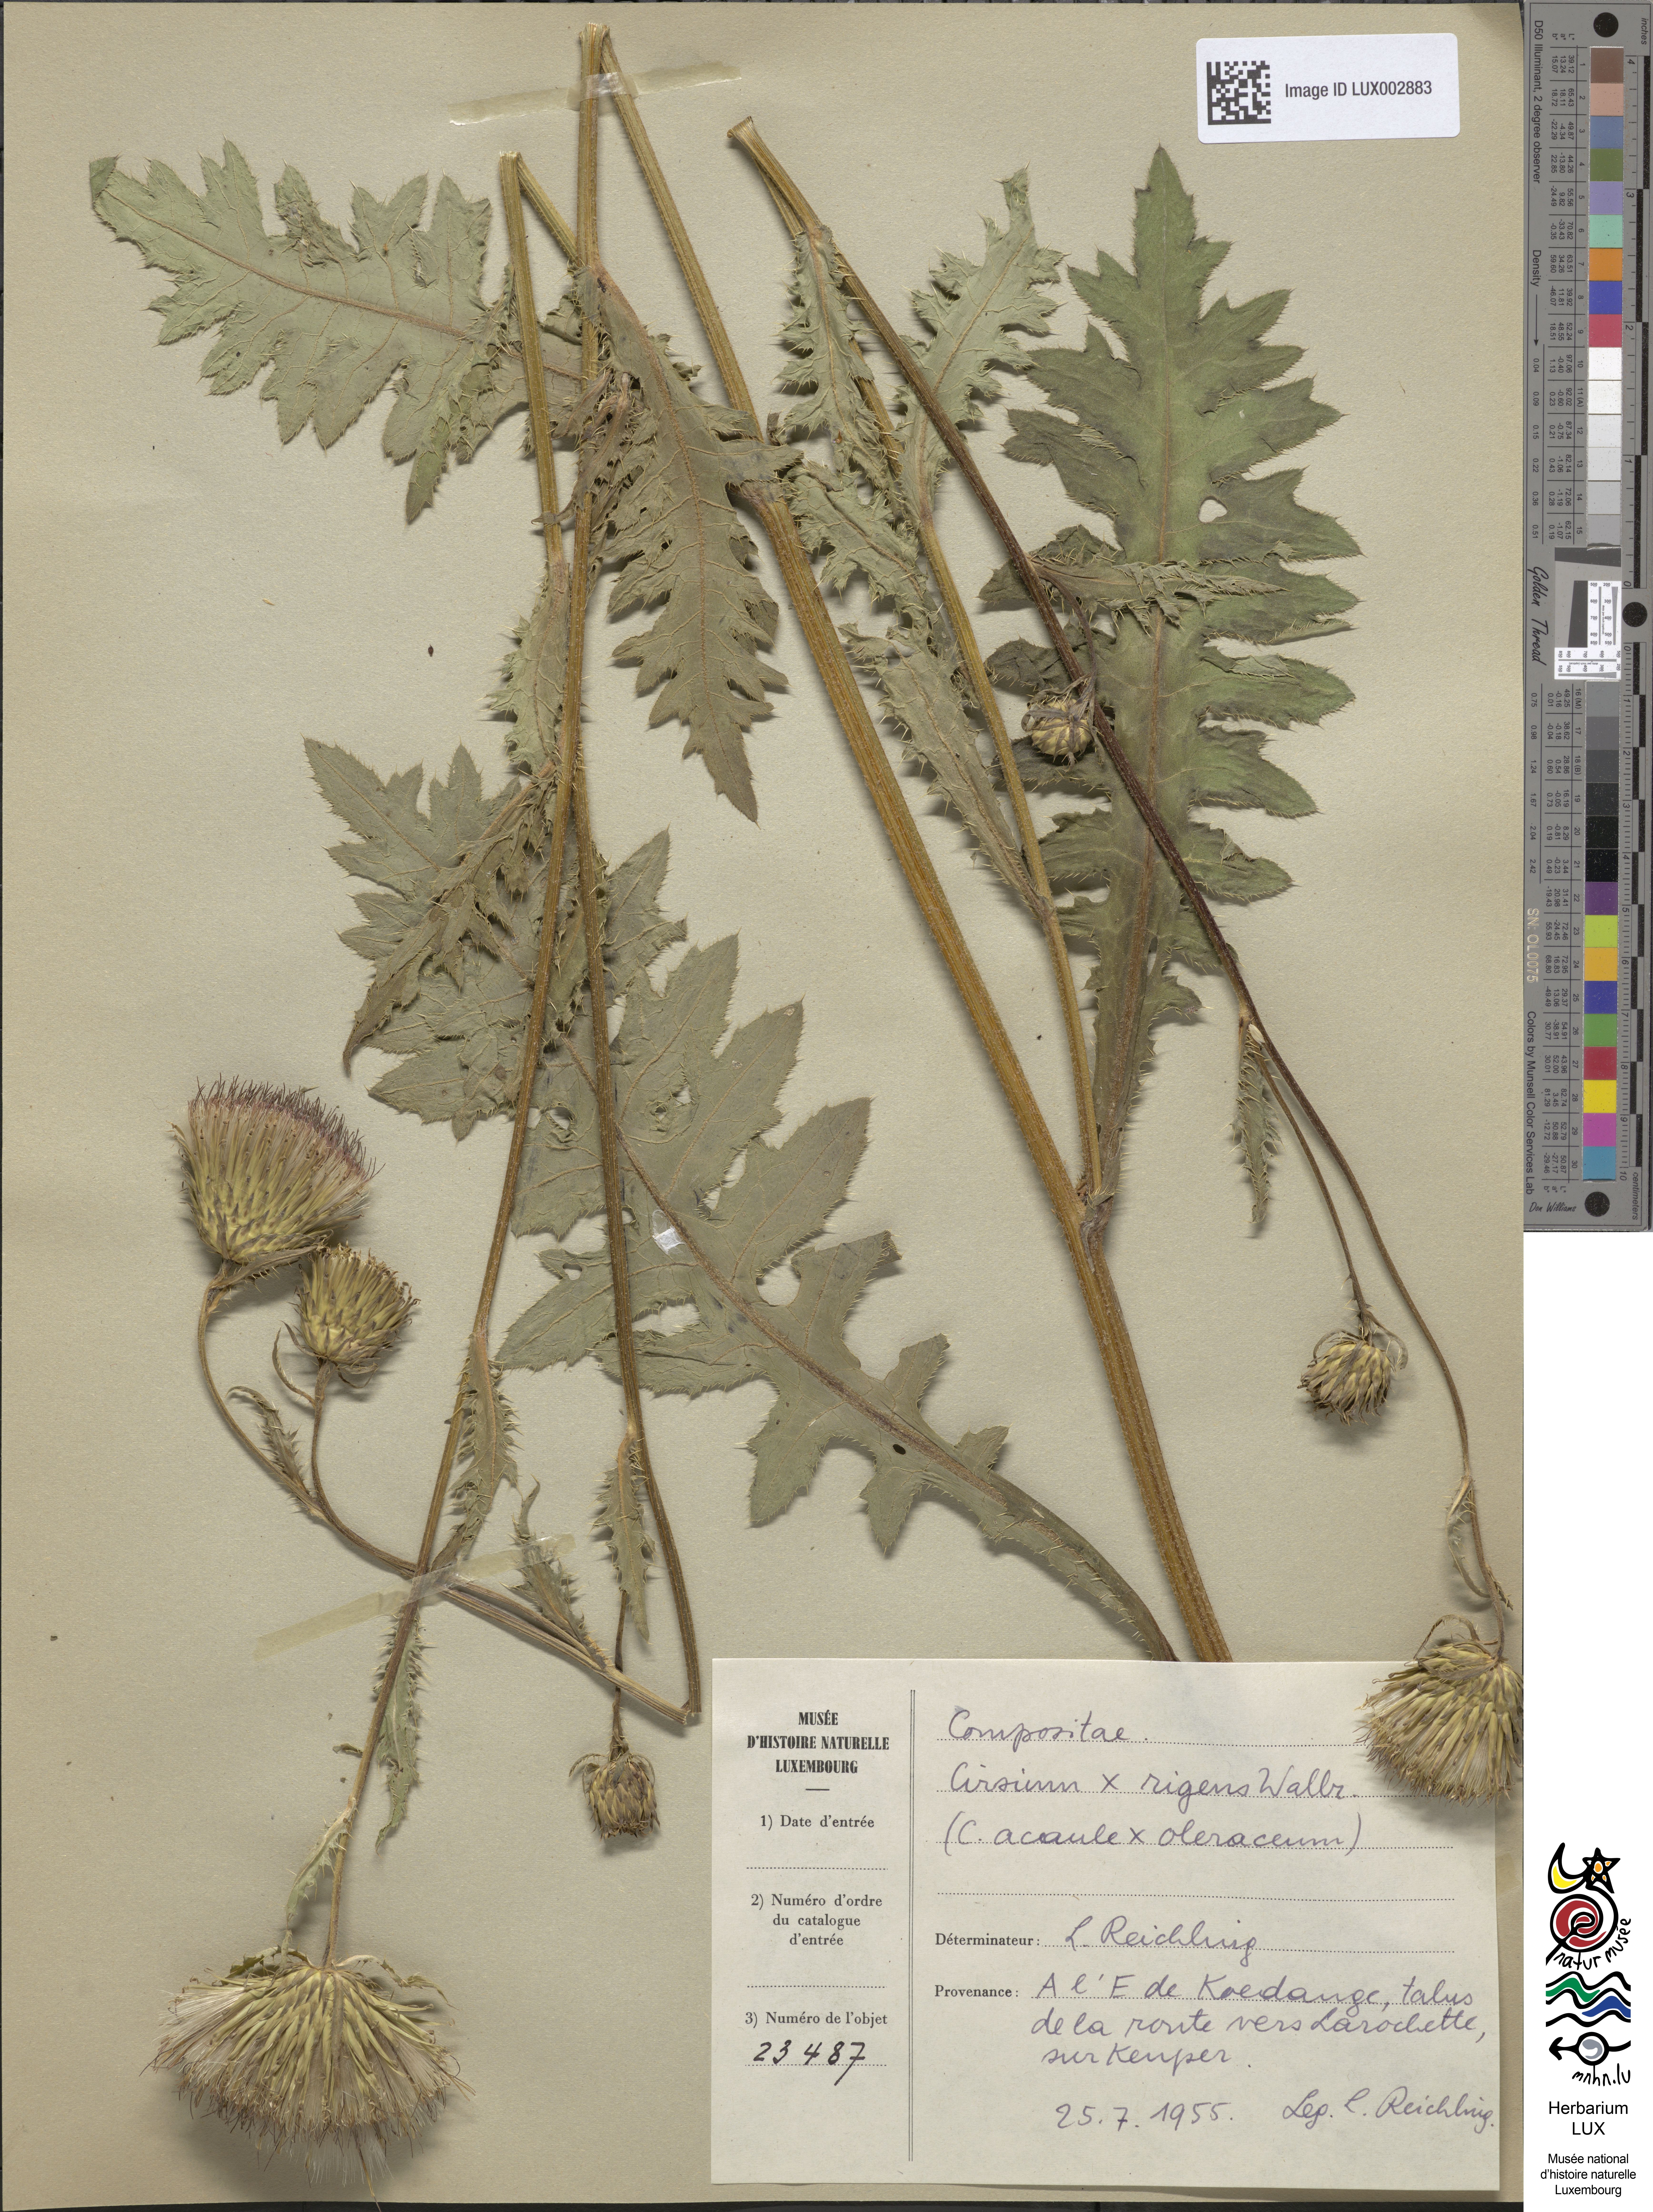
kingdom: Plantae
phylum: Tracheophyta
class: Magnoliopsida
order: Asterales
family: Asteraceae
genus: Cirsium
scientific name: Cirsium rigens
